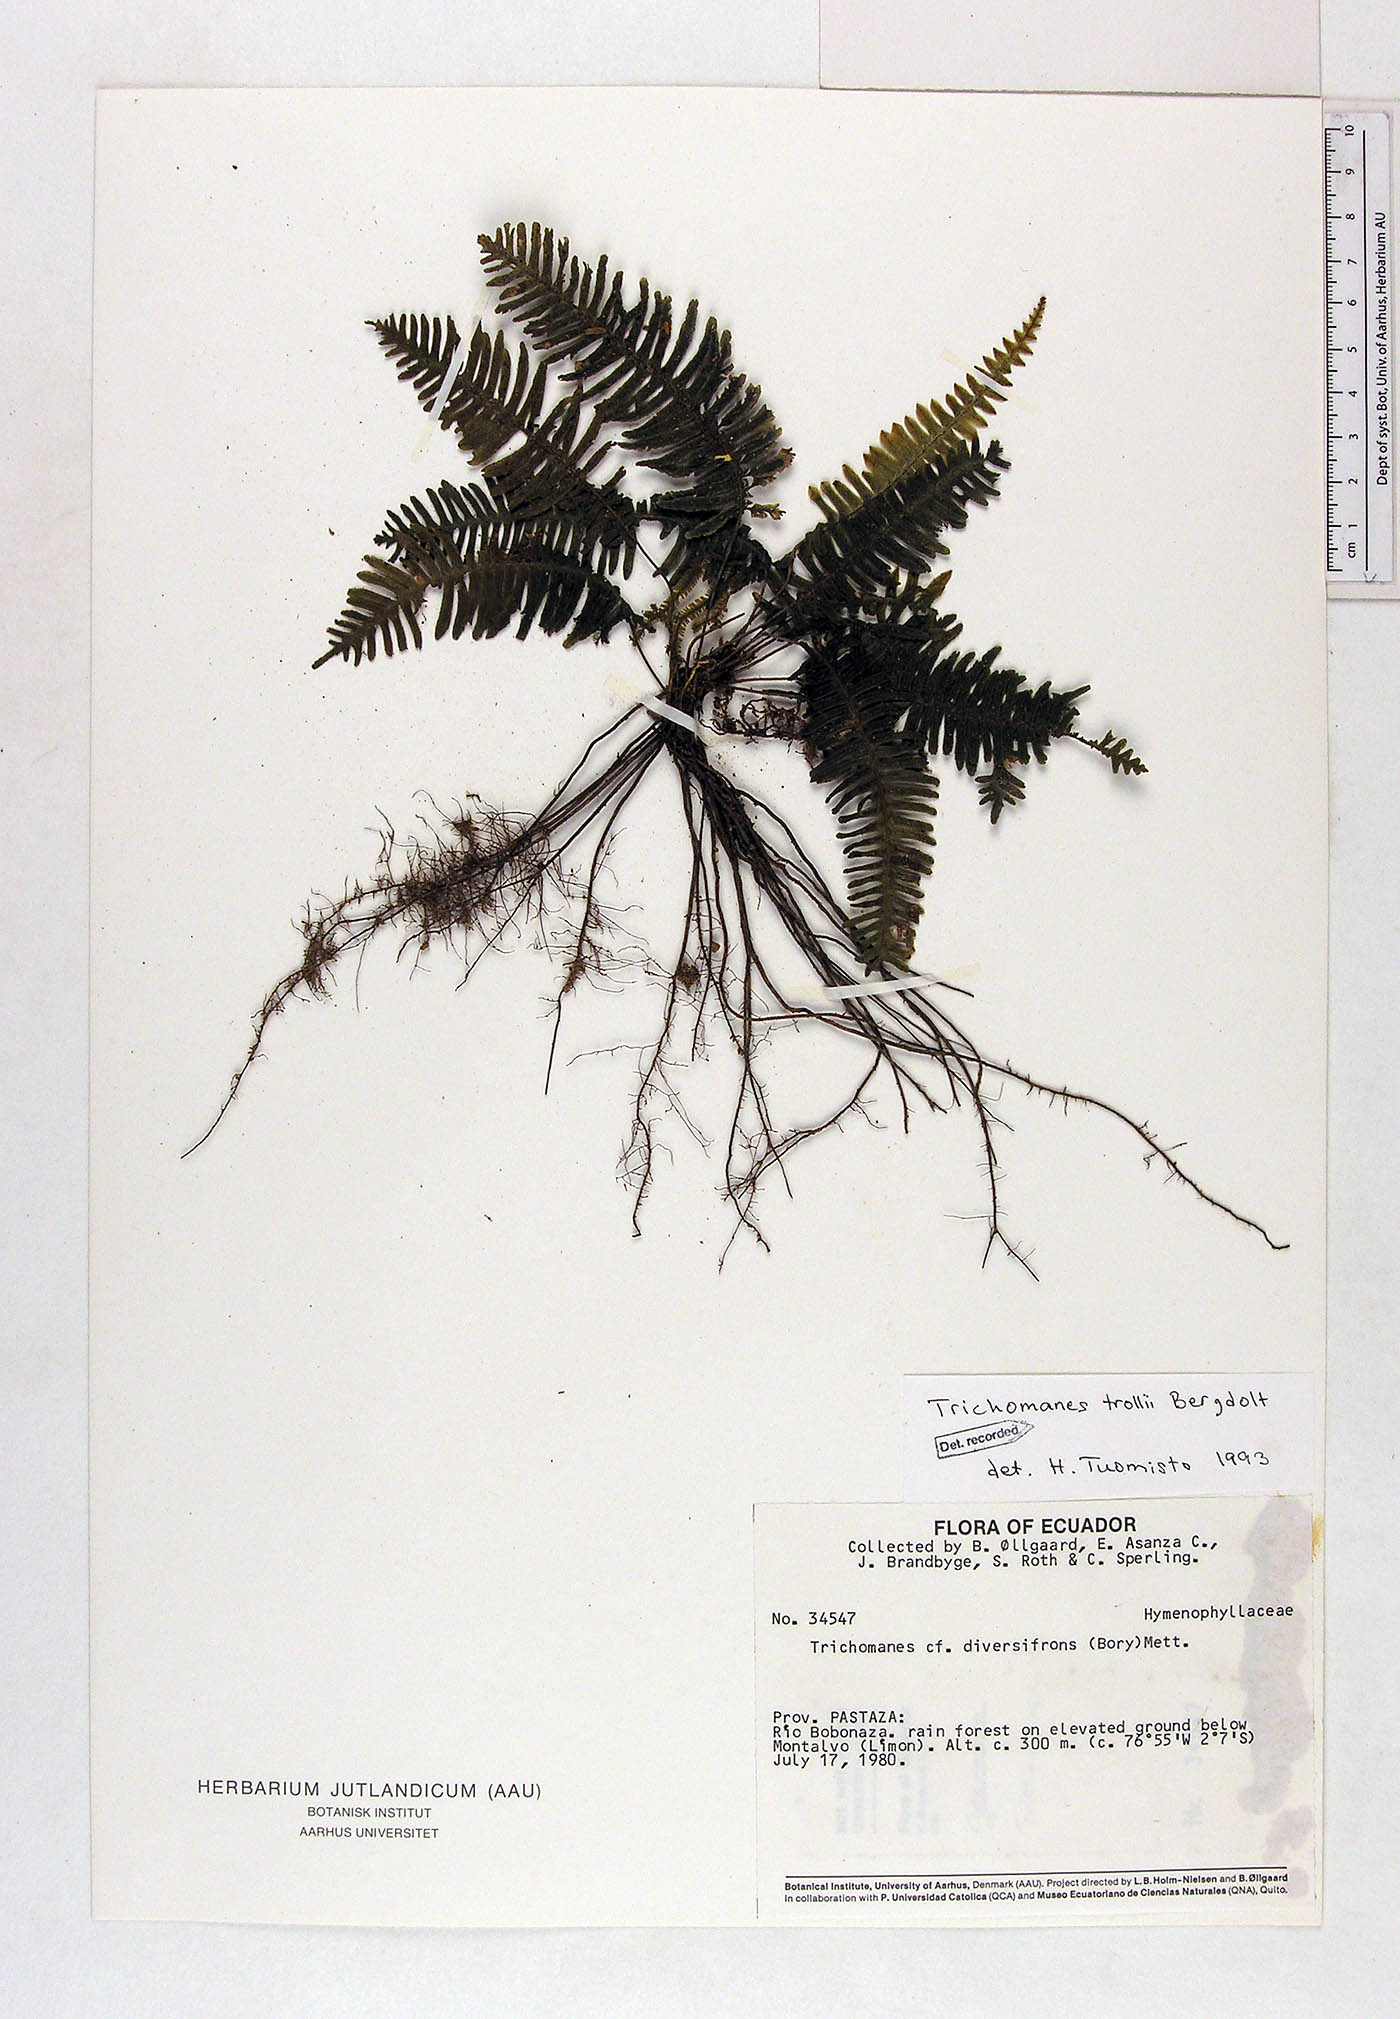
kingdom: Plantae
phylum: Tracheophyta
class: Polypodiopsida
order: Hymenophyllales
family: Hymenophyllaceae
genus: Trichomanes
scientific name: Trichomanes trollii
